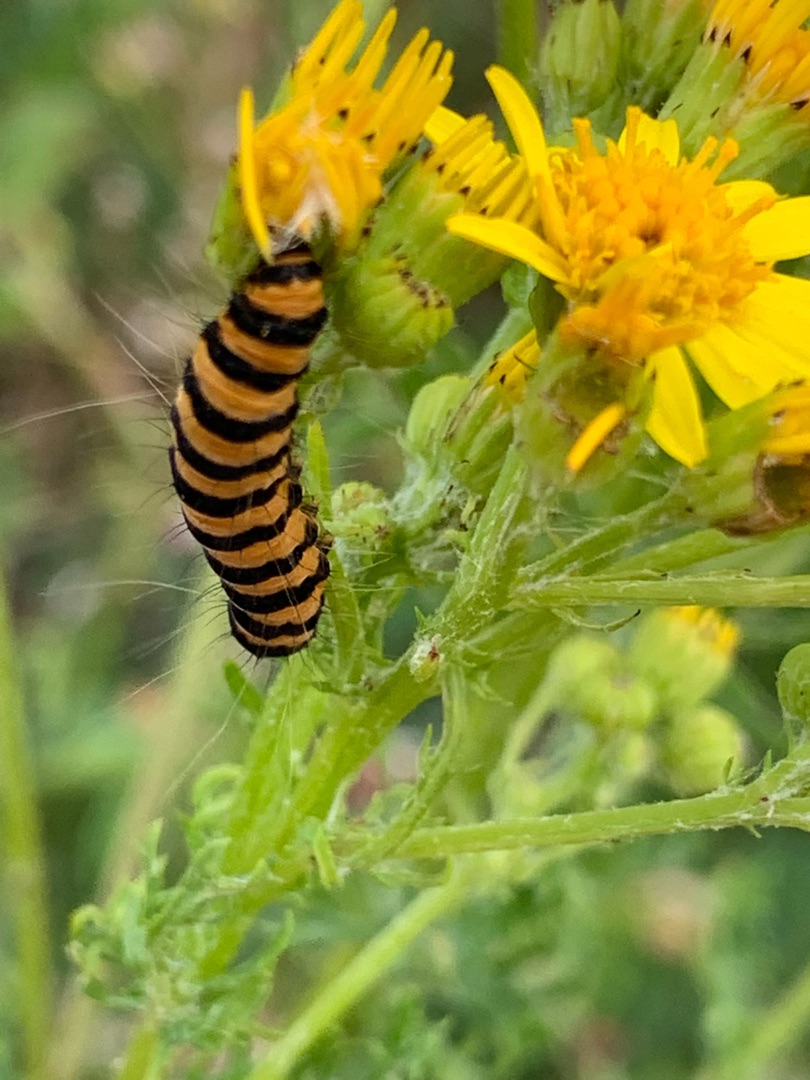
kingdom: Animalia
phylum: Arthropoda
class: Insecta
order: Lepidoptera
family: Erebidae
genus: Tyria
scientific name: Tyria jacobaeae
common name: Blodplet
